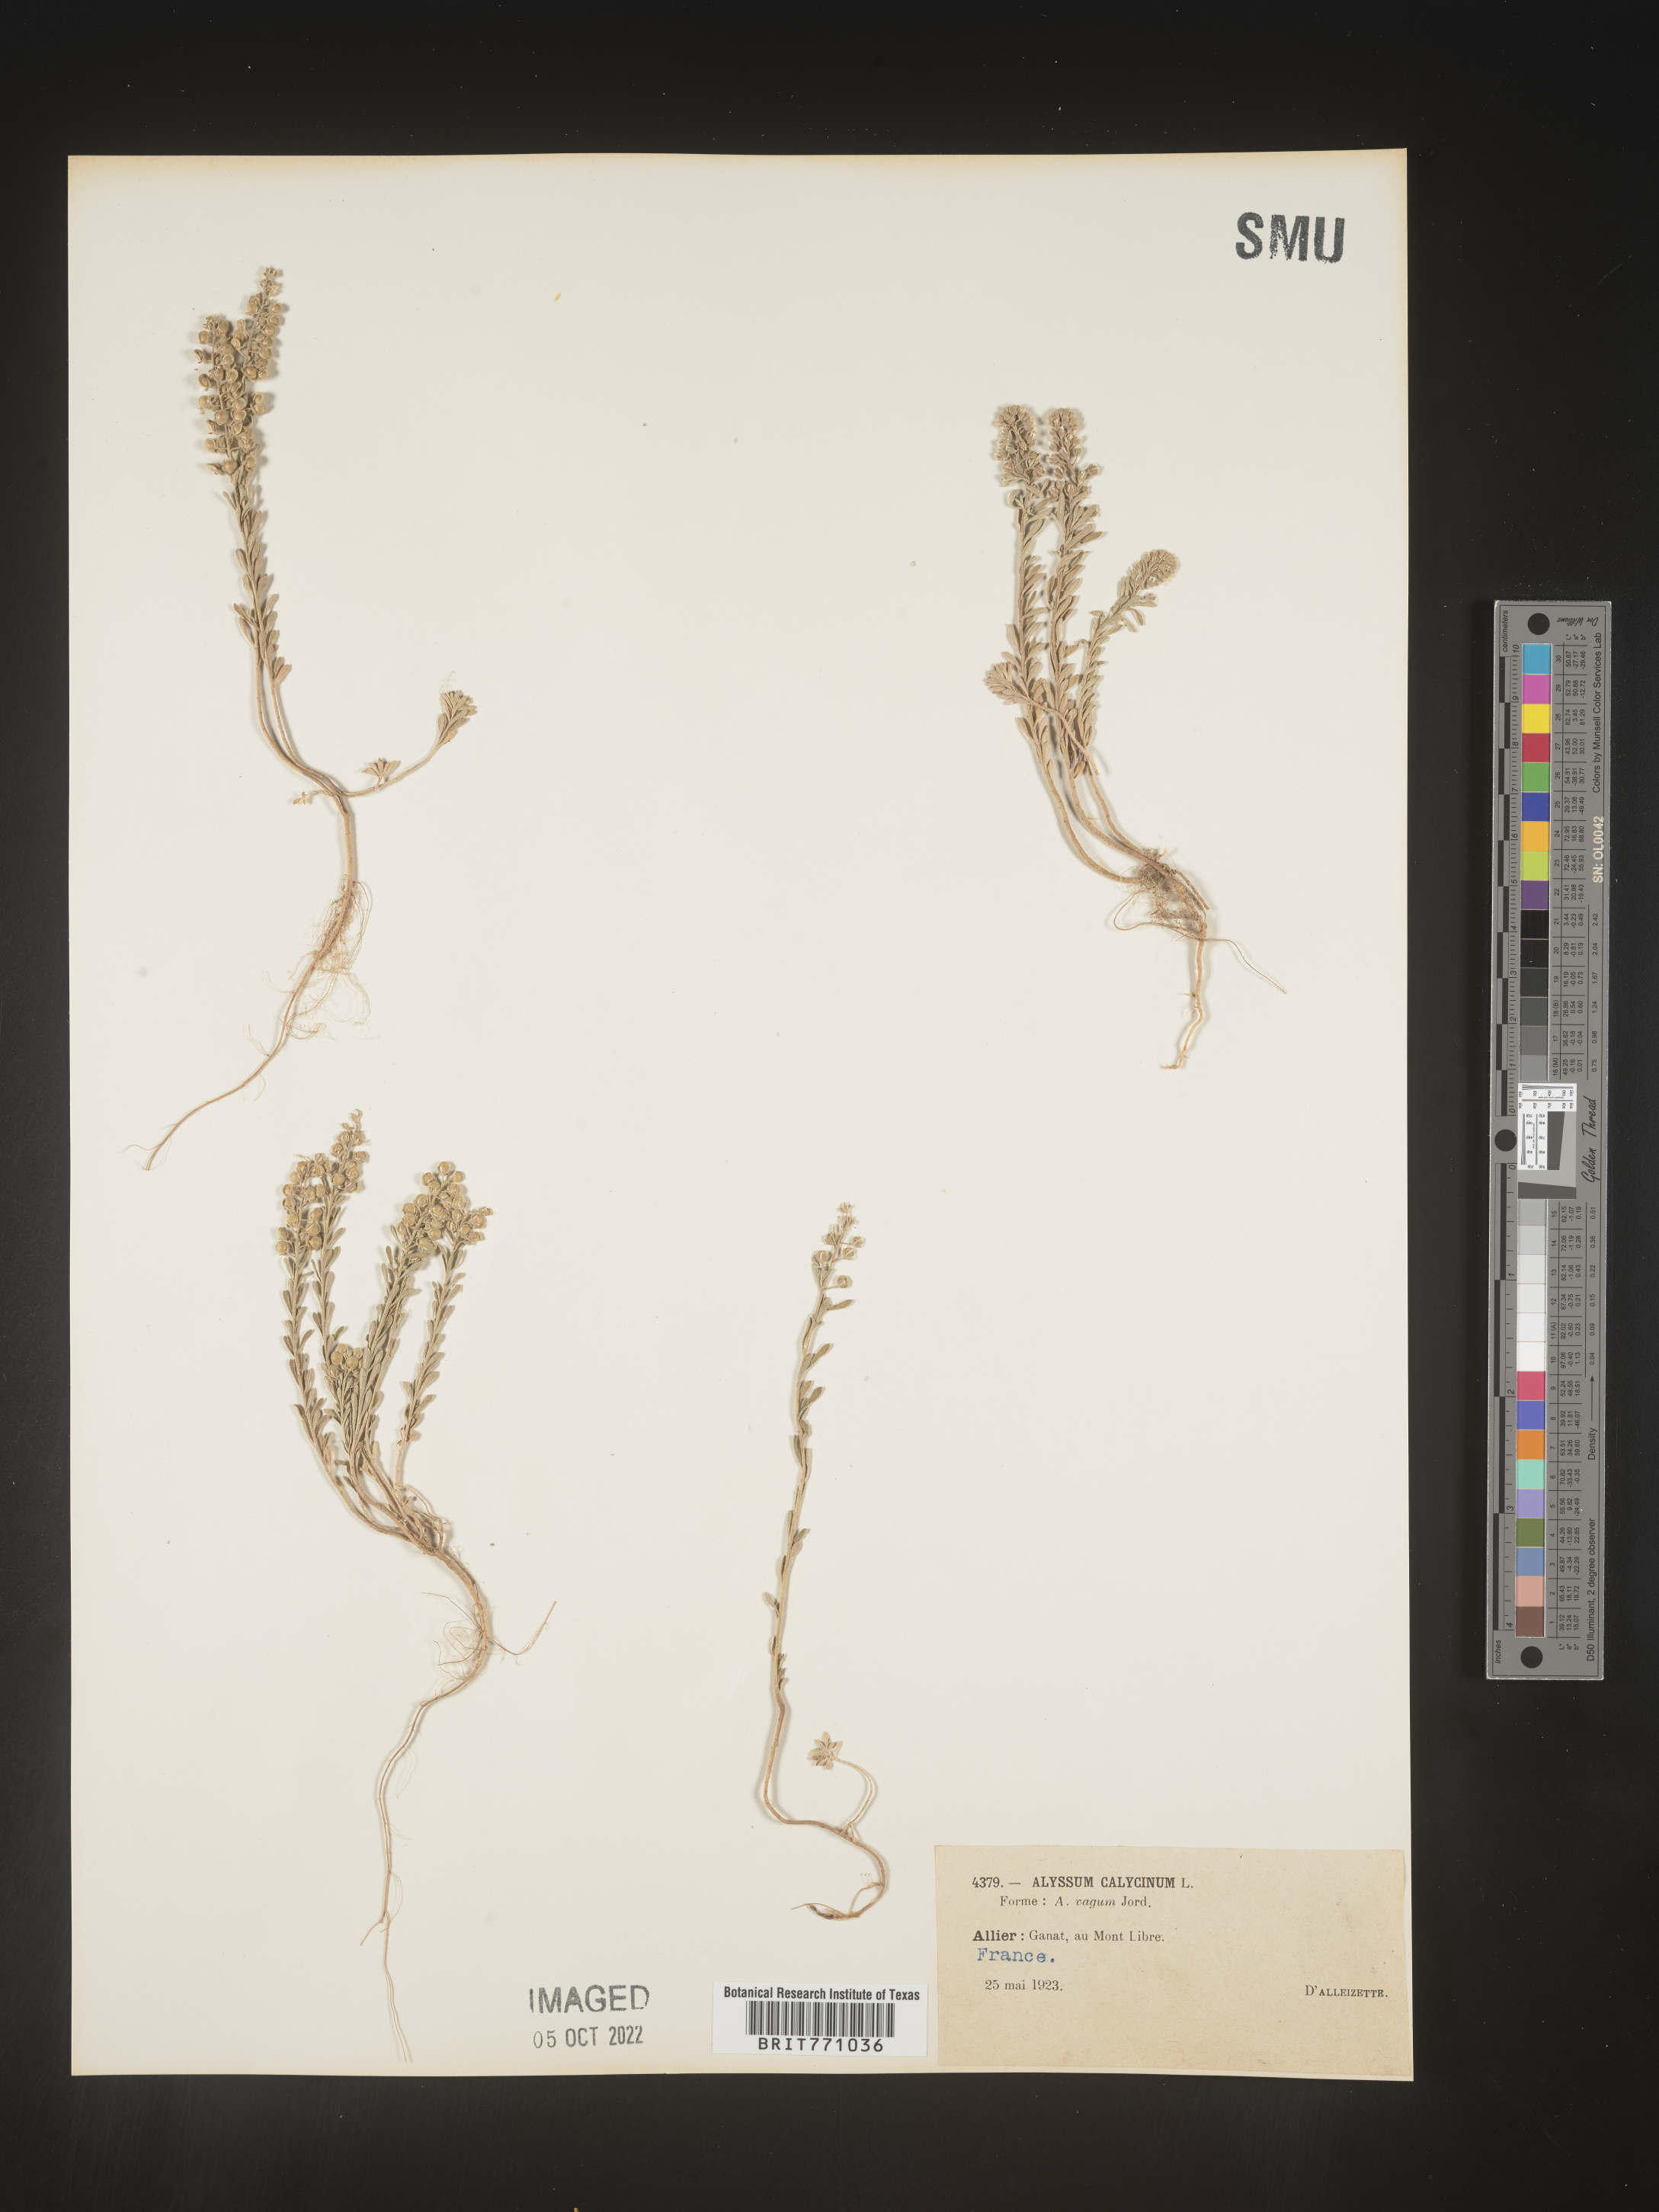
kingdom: Plantae
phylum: Tracheophyta
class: Magnoliopsida
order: Brassicales
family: Brassicaceae
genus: Alyssum
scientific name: Alyssum
